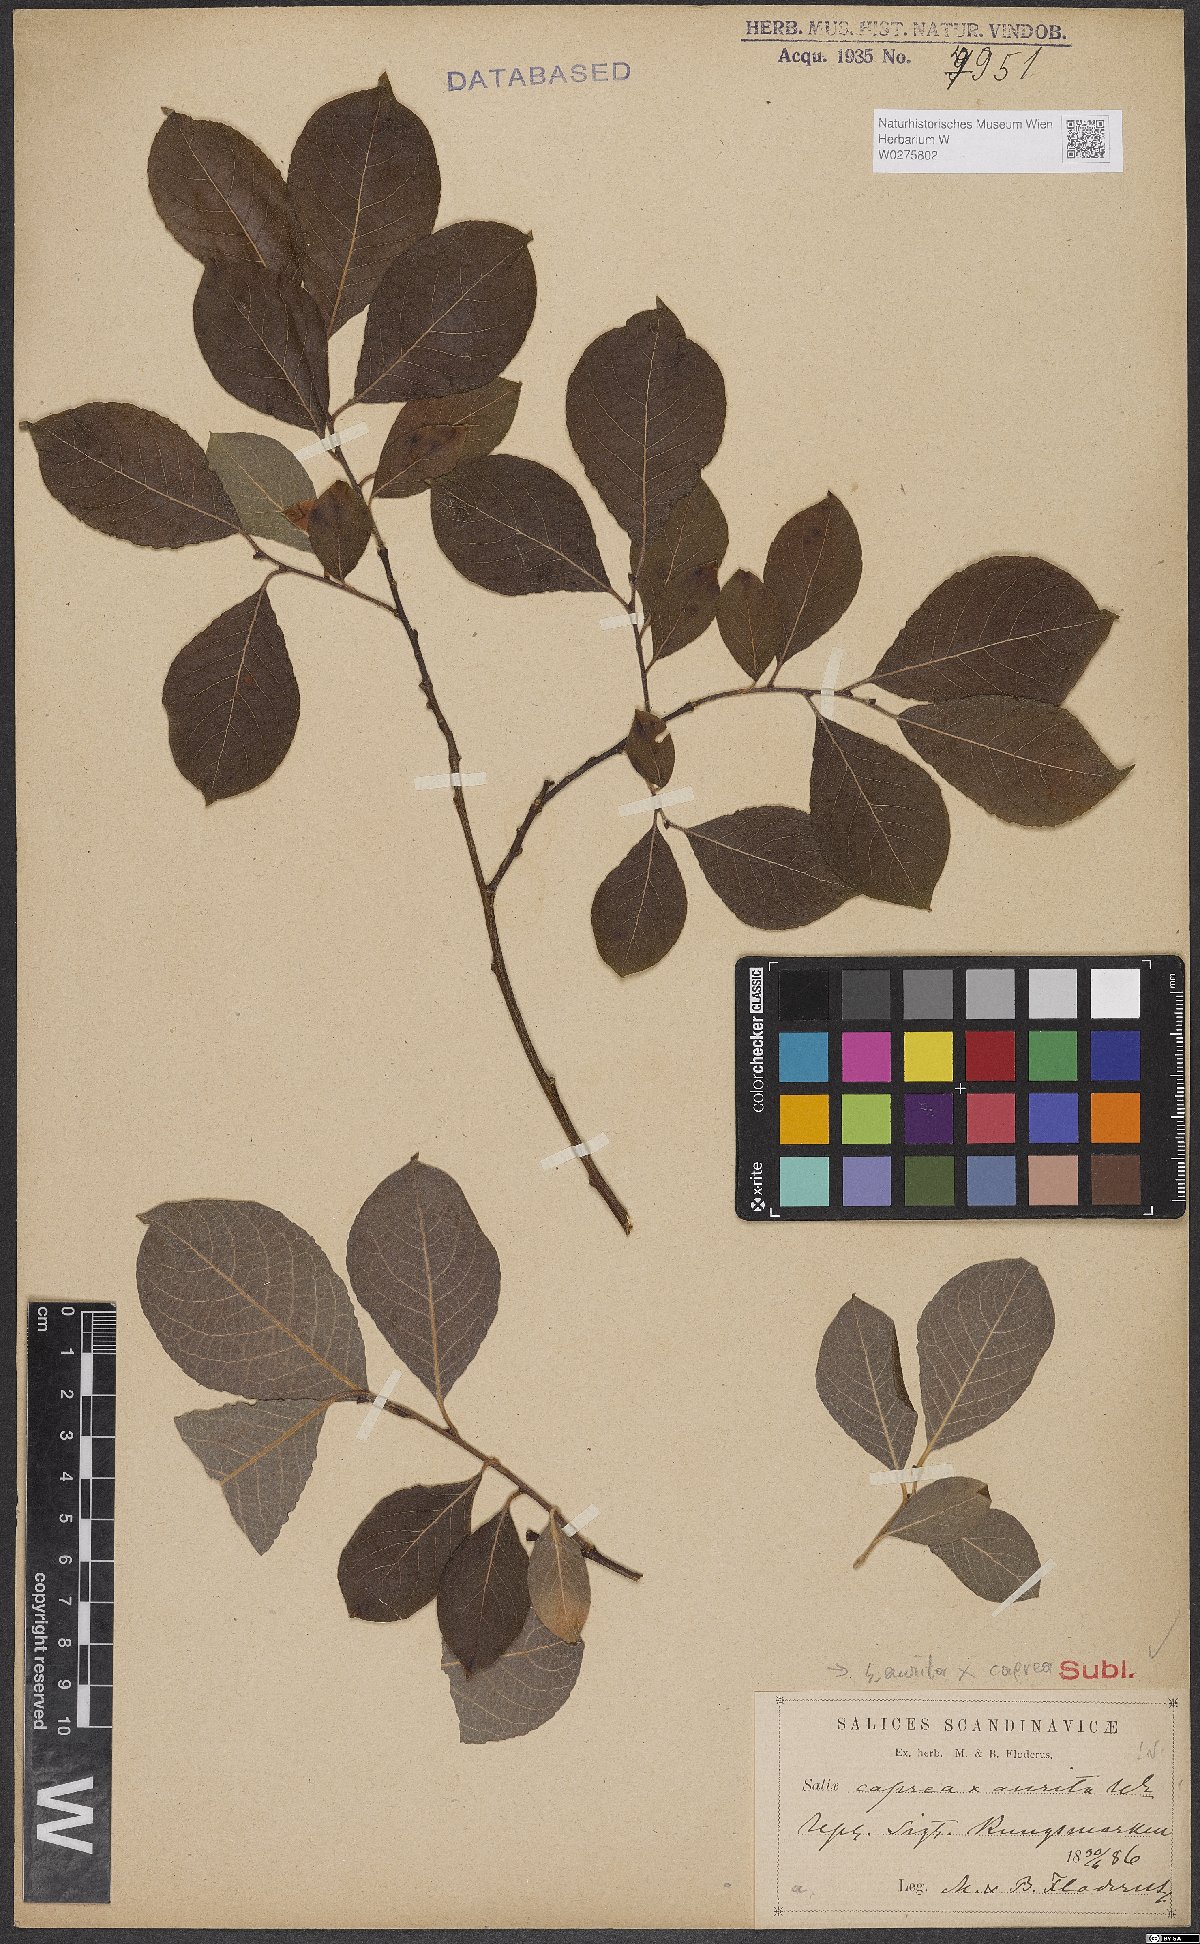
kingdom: Plantae
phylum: Tracheophyta
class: Magnoliopsida
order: Malpighiales
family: Salicaceae
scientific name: Salicaceae
